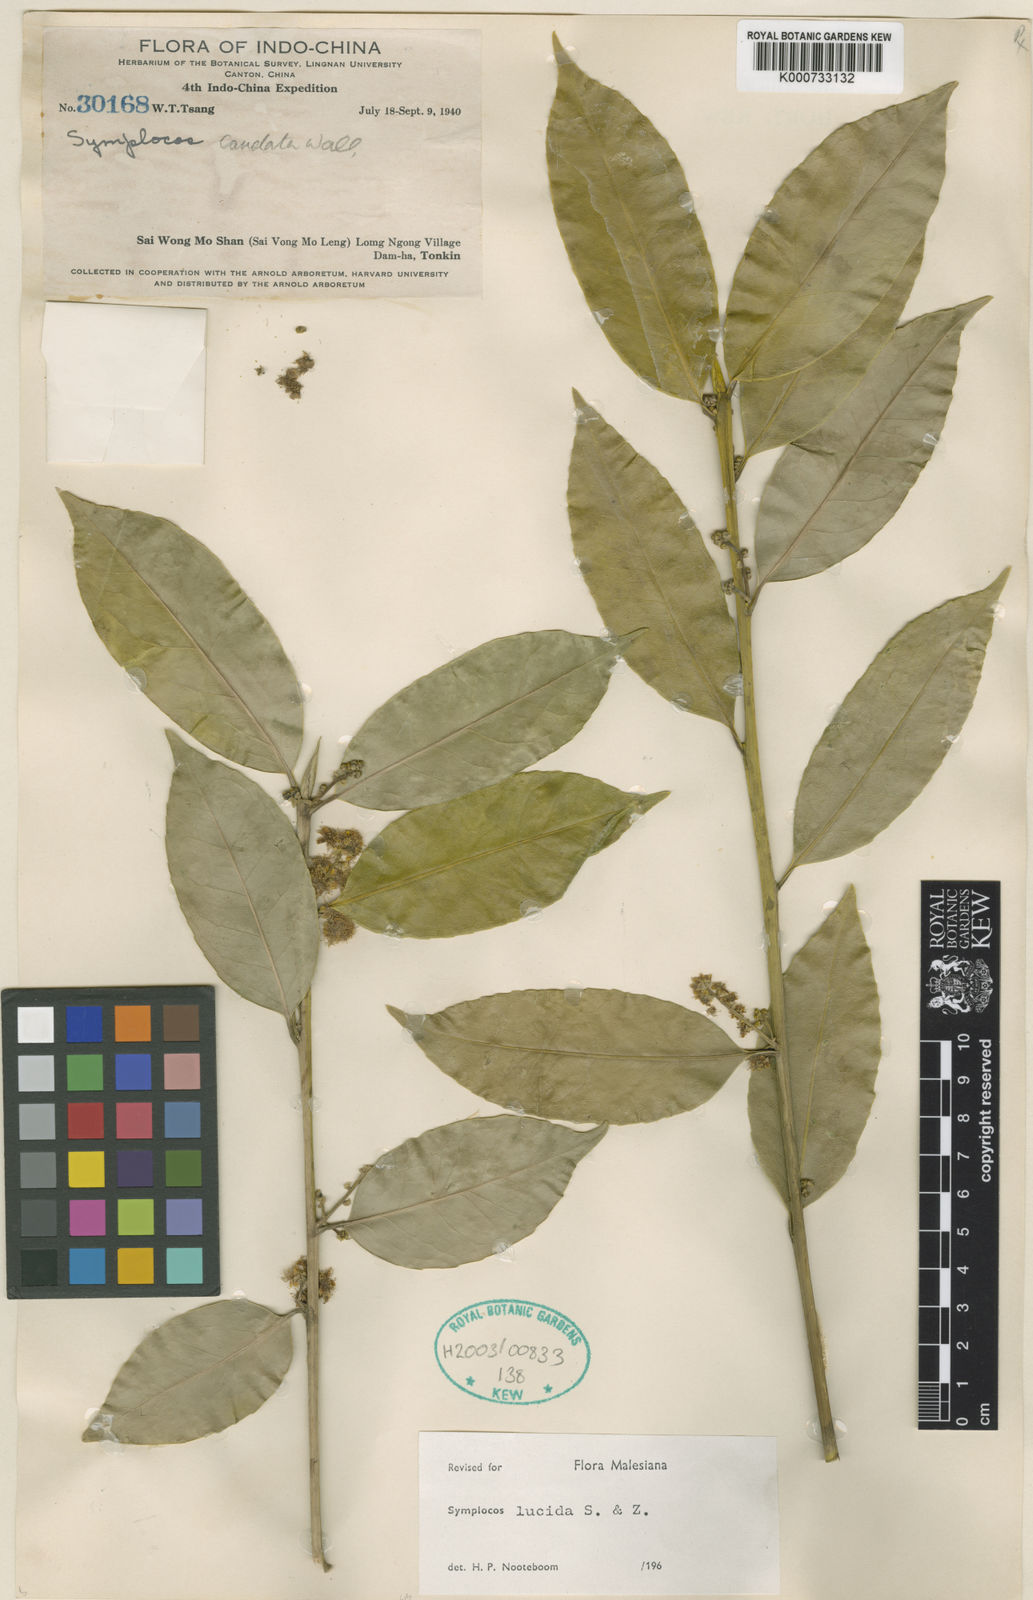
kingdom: Plantae
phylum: Tracheophyta
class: Magnoliopsida
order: Ericales
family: Symplocaceae
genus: Symplocos
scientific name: Symplocos
